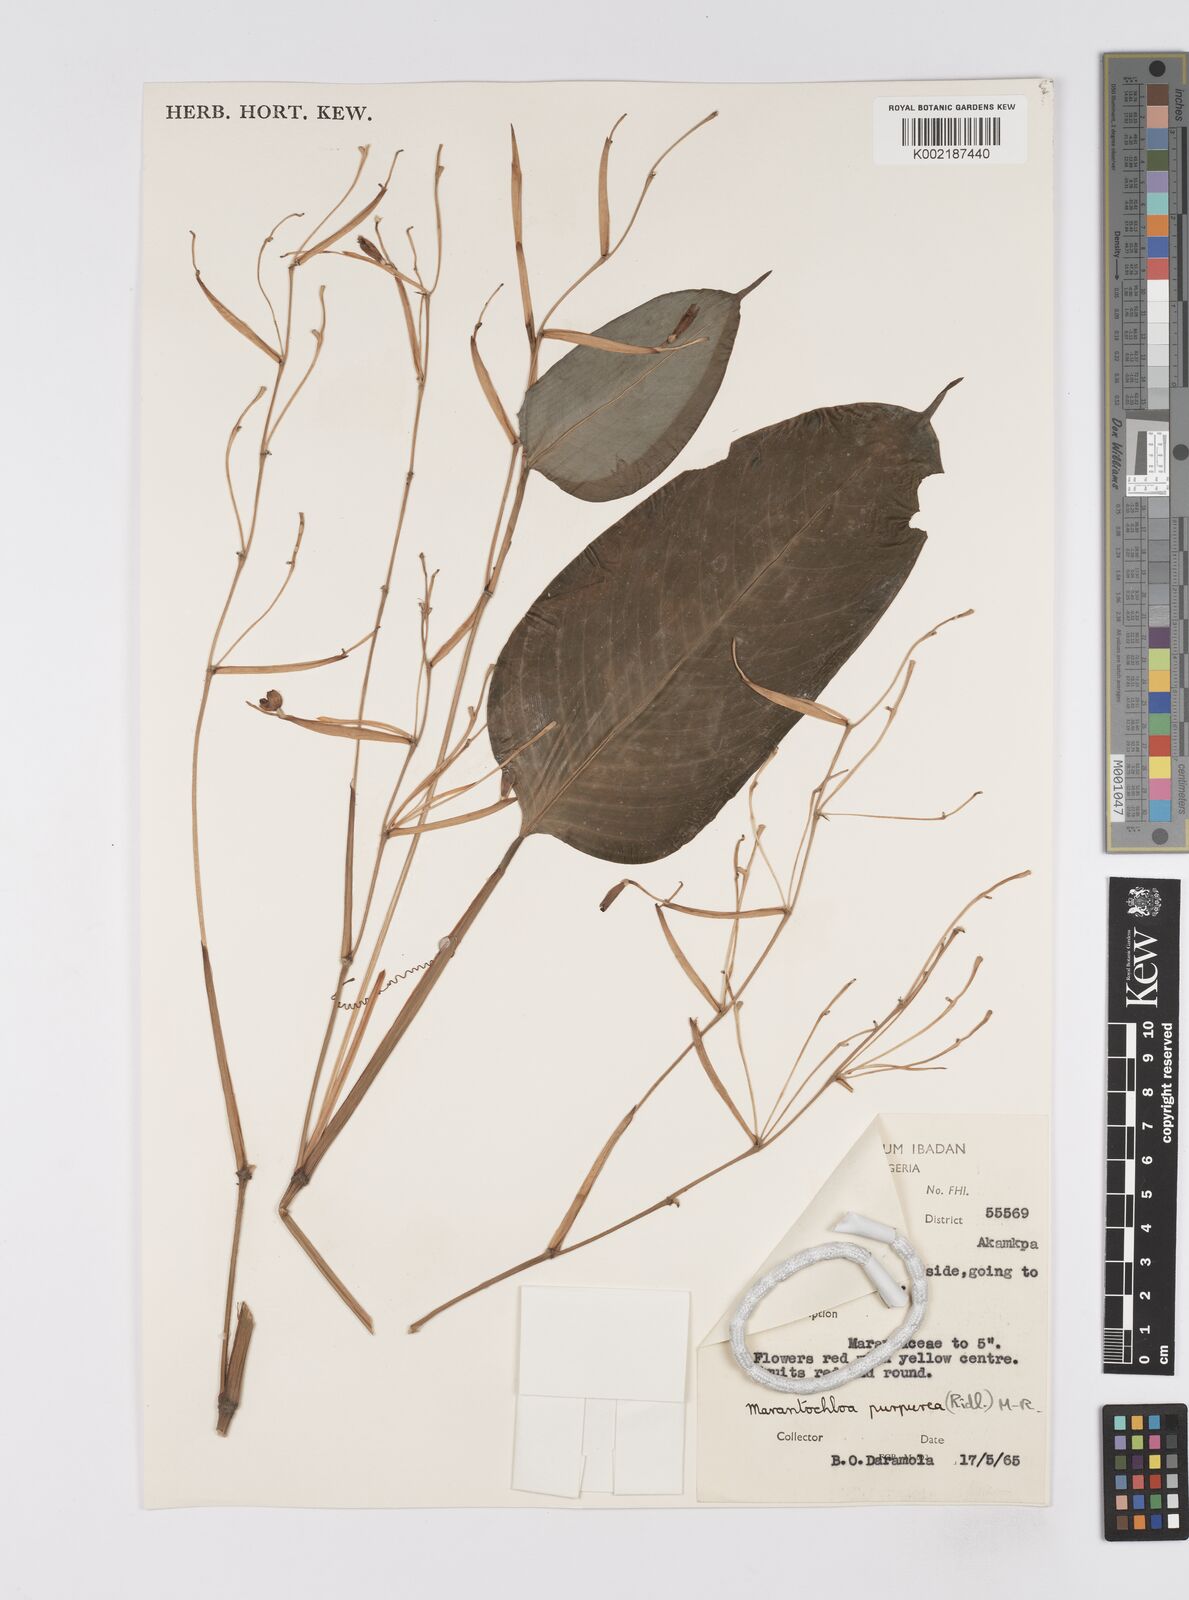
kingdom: Plantae
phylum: Tracheophyta
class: Liliopsida
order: Zingiberales
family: Marantaceae
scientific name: Marantaceae
